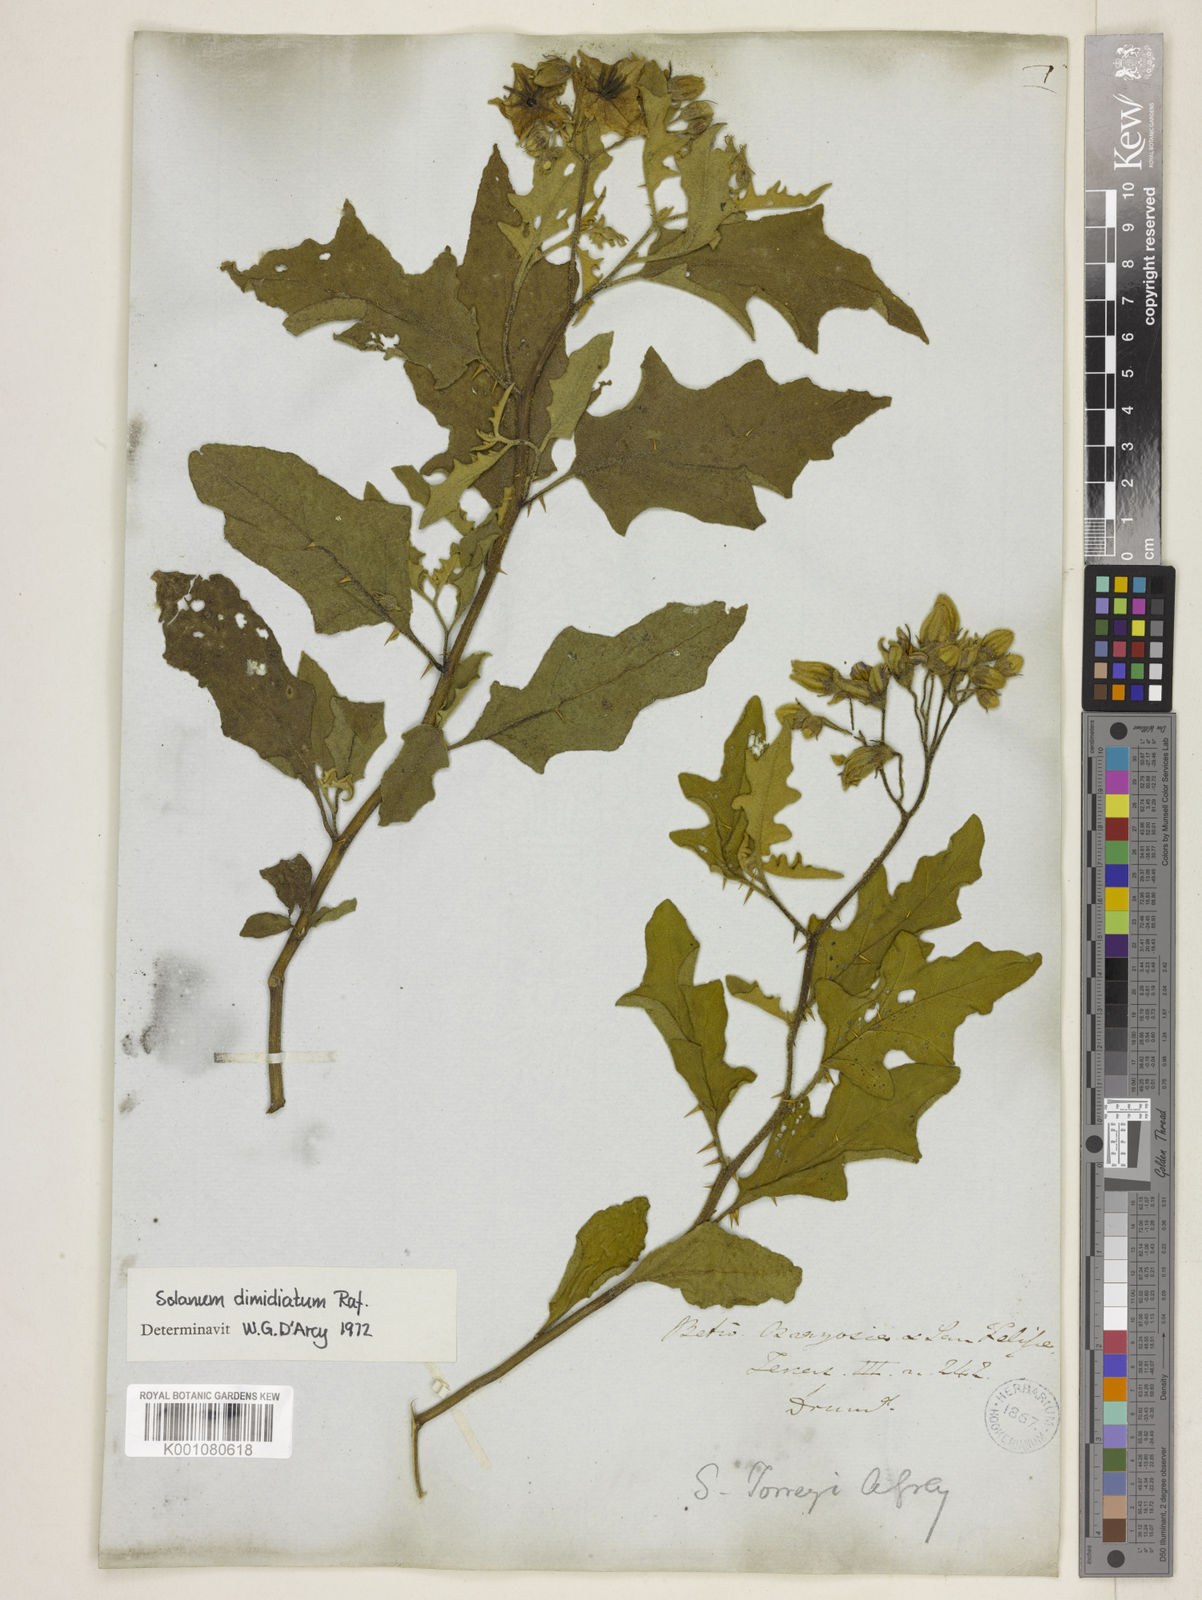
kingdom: Plantae
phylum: Tracheophyta
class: Magnoliopsida
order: Solanales
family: Solanaceae
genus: Solanum
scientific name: Solanum dimidiatum
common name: Carolina horse-nettle
